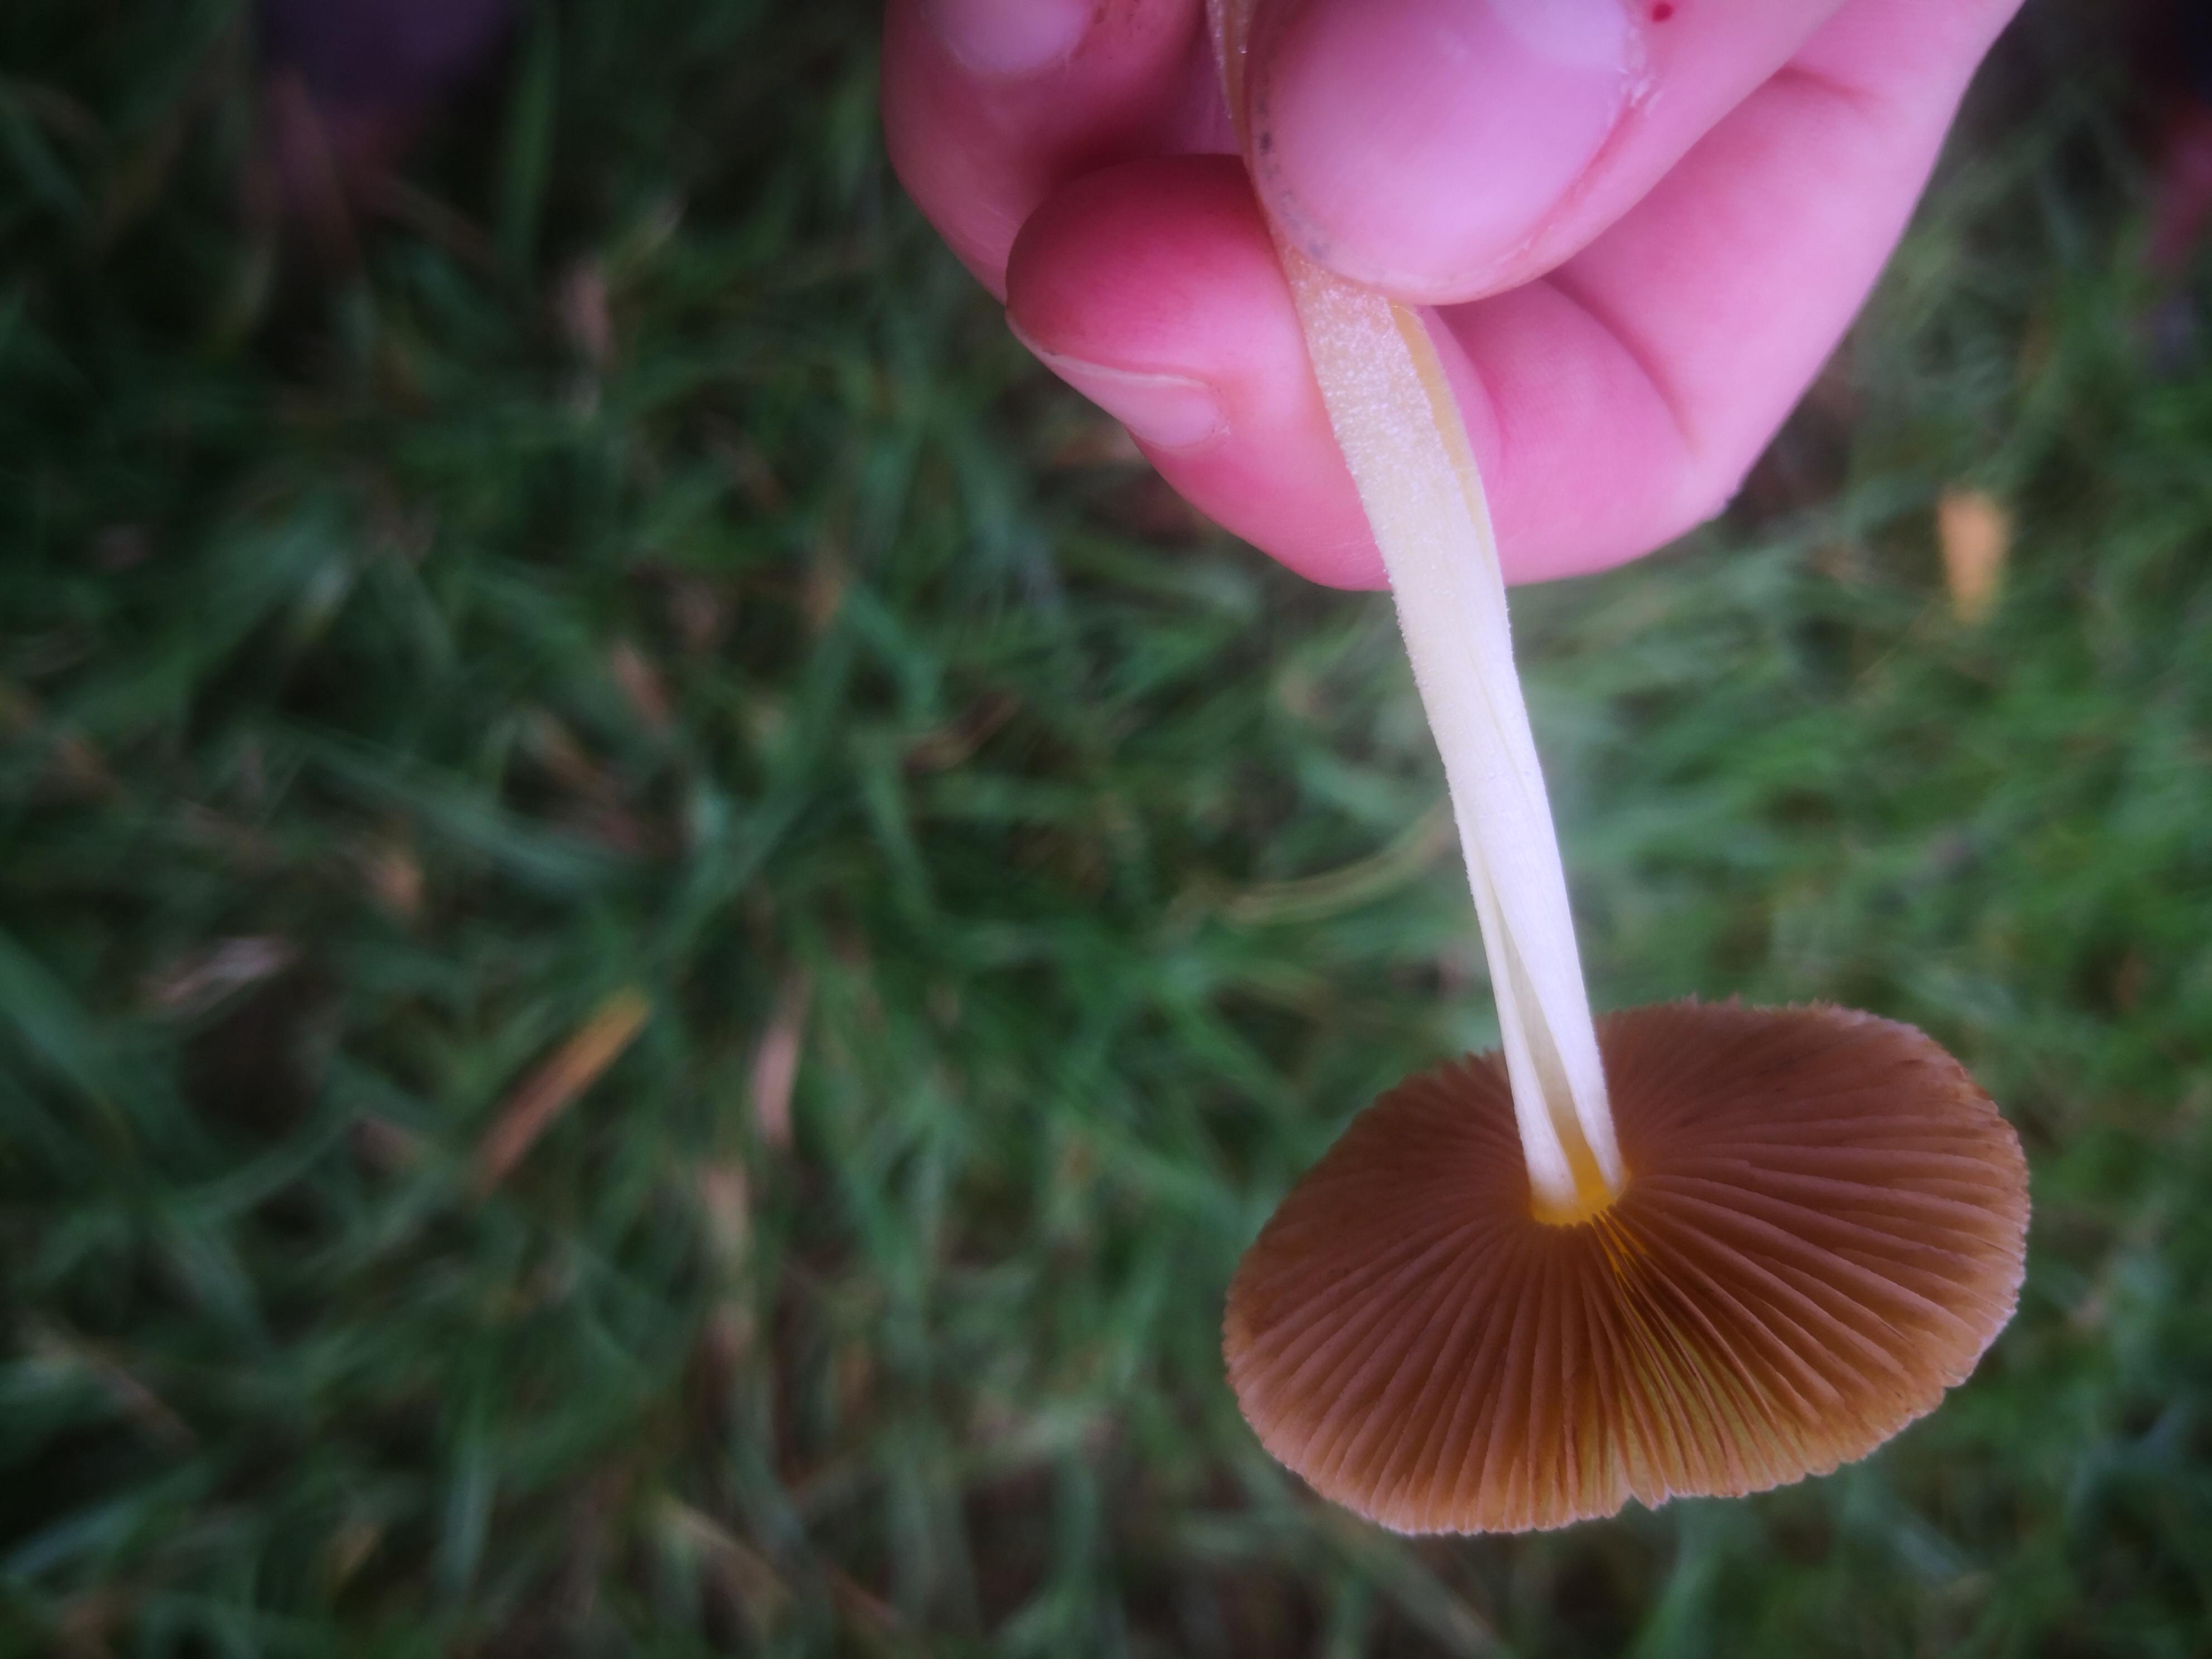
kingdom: Fungi
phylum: Basidiomycota
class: Agaricomycetes
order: Agaricales
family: Bolbitiaceae
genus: Bolbitius
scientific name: Bolbitius titubans
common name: almindelig gulhat
